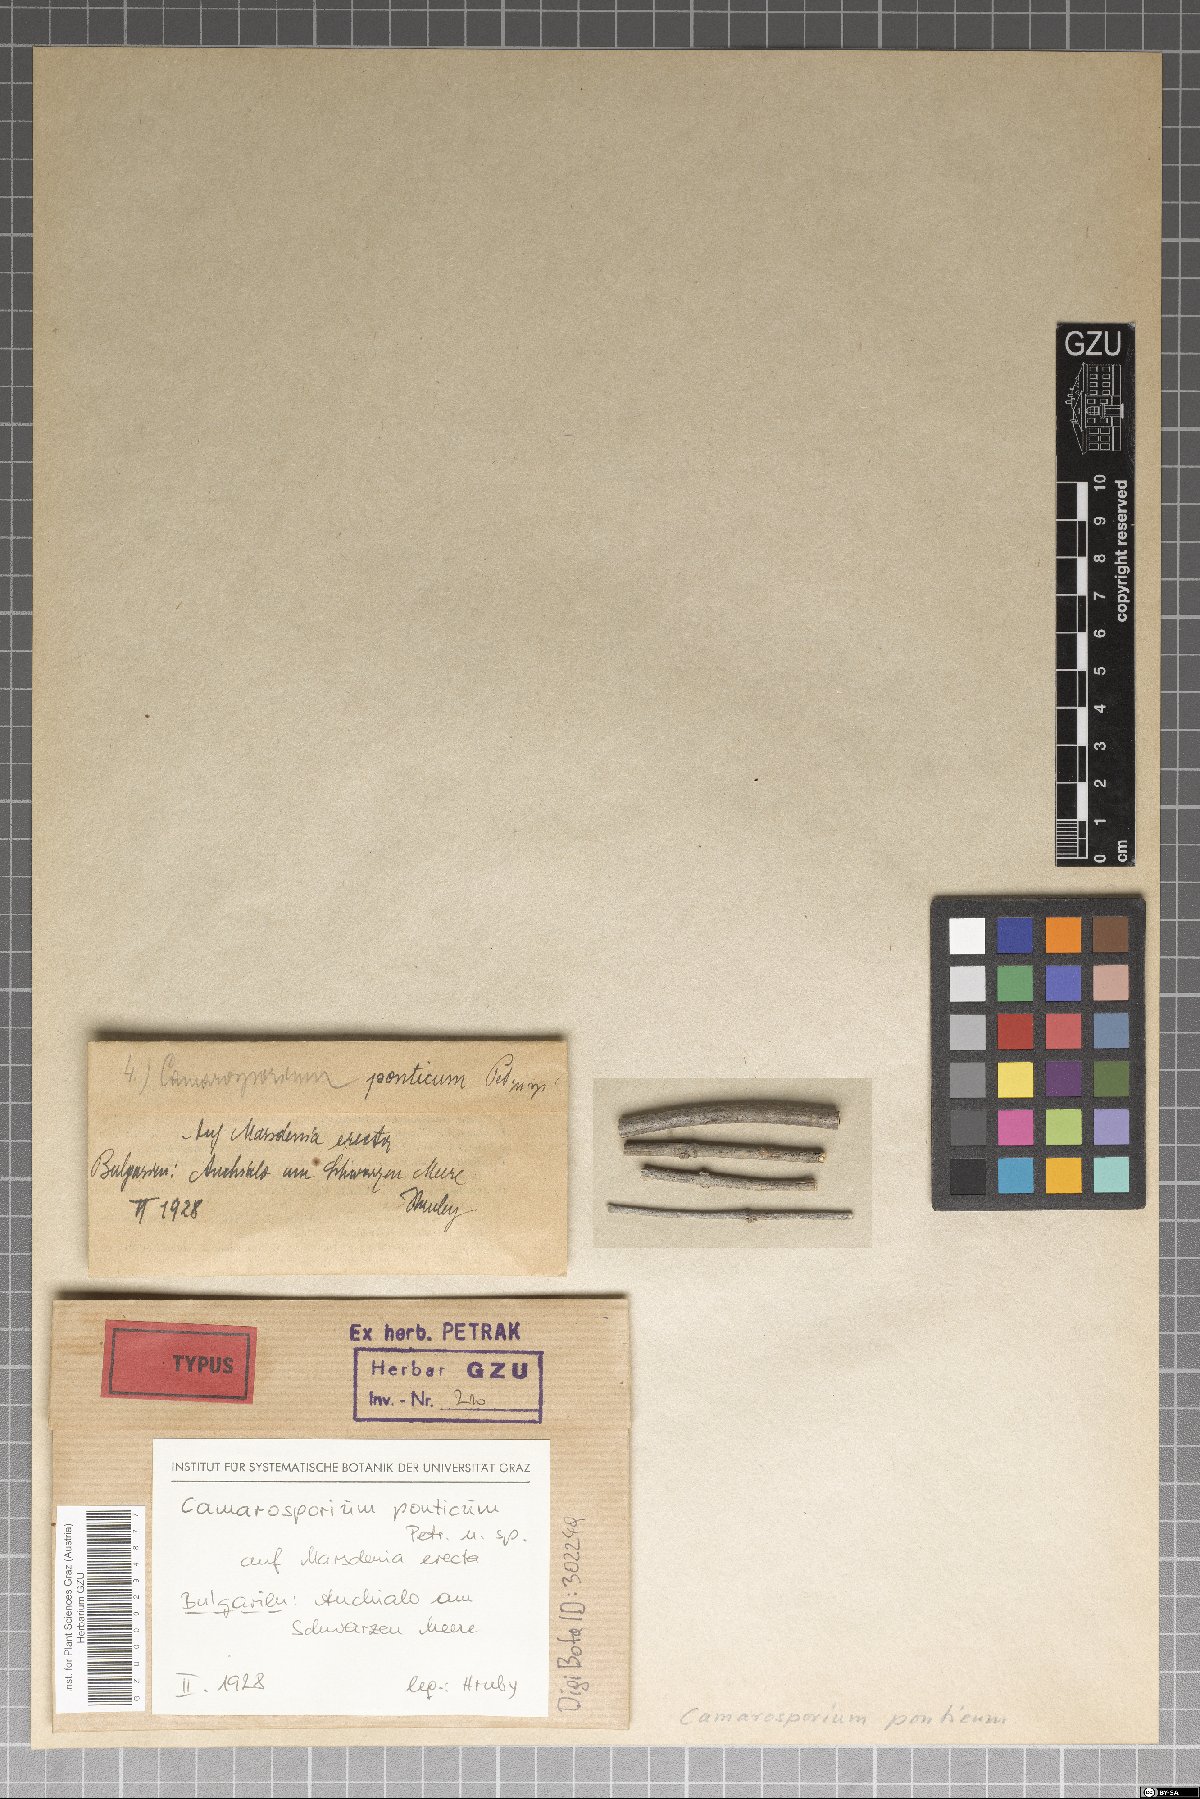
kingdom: Fungi
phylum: Ascomycota
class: Dothideomycetes
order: Pleosporales
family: Camarosporiaceae
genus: Camarosporium
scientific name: Camarosporium ponticum
